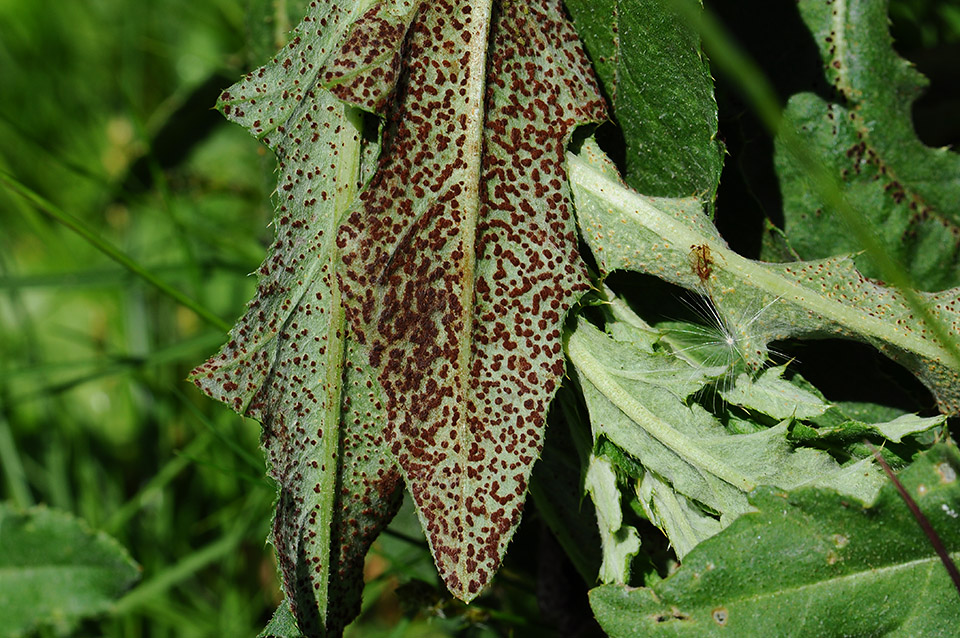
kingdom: Fungi
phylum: Basidiomycota
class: Pucciniomycetes
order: Pucciniales
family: Pucciniaceae
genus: Puccinia
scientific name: Puccinia suaveolens
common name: tidsel-tvecellerust
